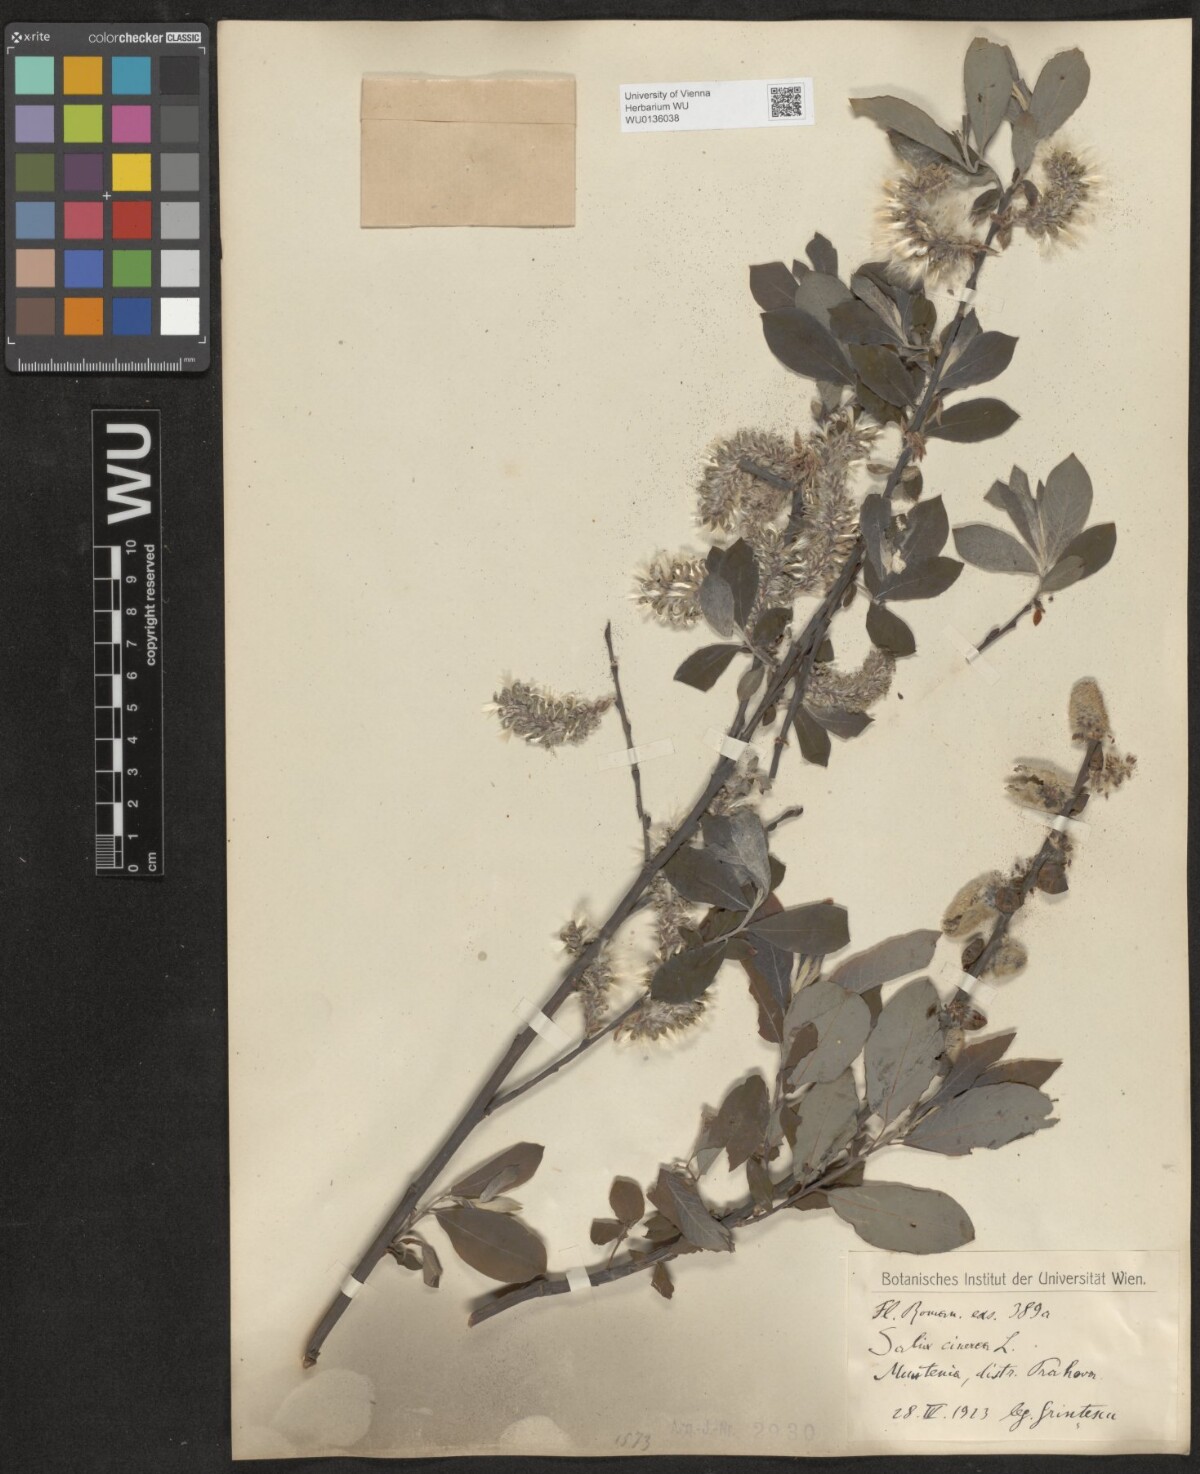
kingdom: Plantae
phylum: Tracheophyta
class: Magnoliopsida
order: Malpighiales
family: Salicaceae
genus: Salix
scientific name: Salix cinerea
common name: Common sallow
